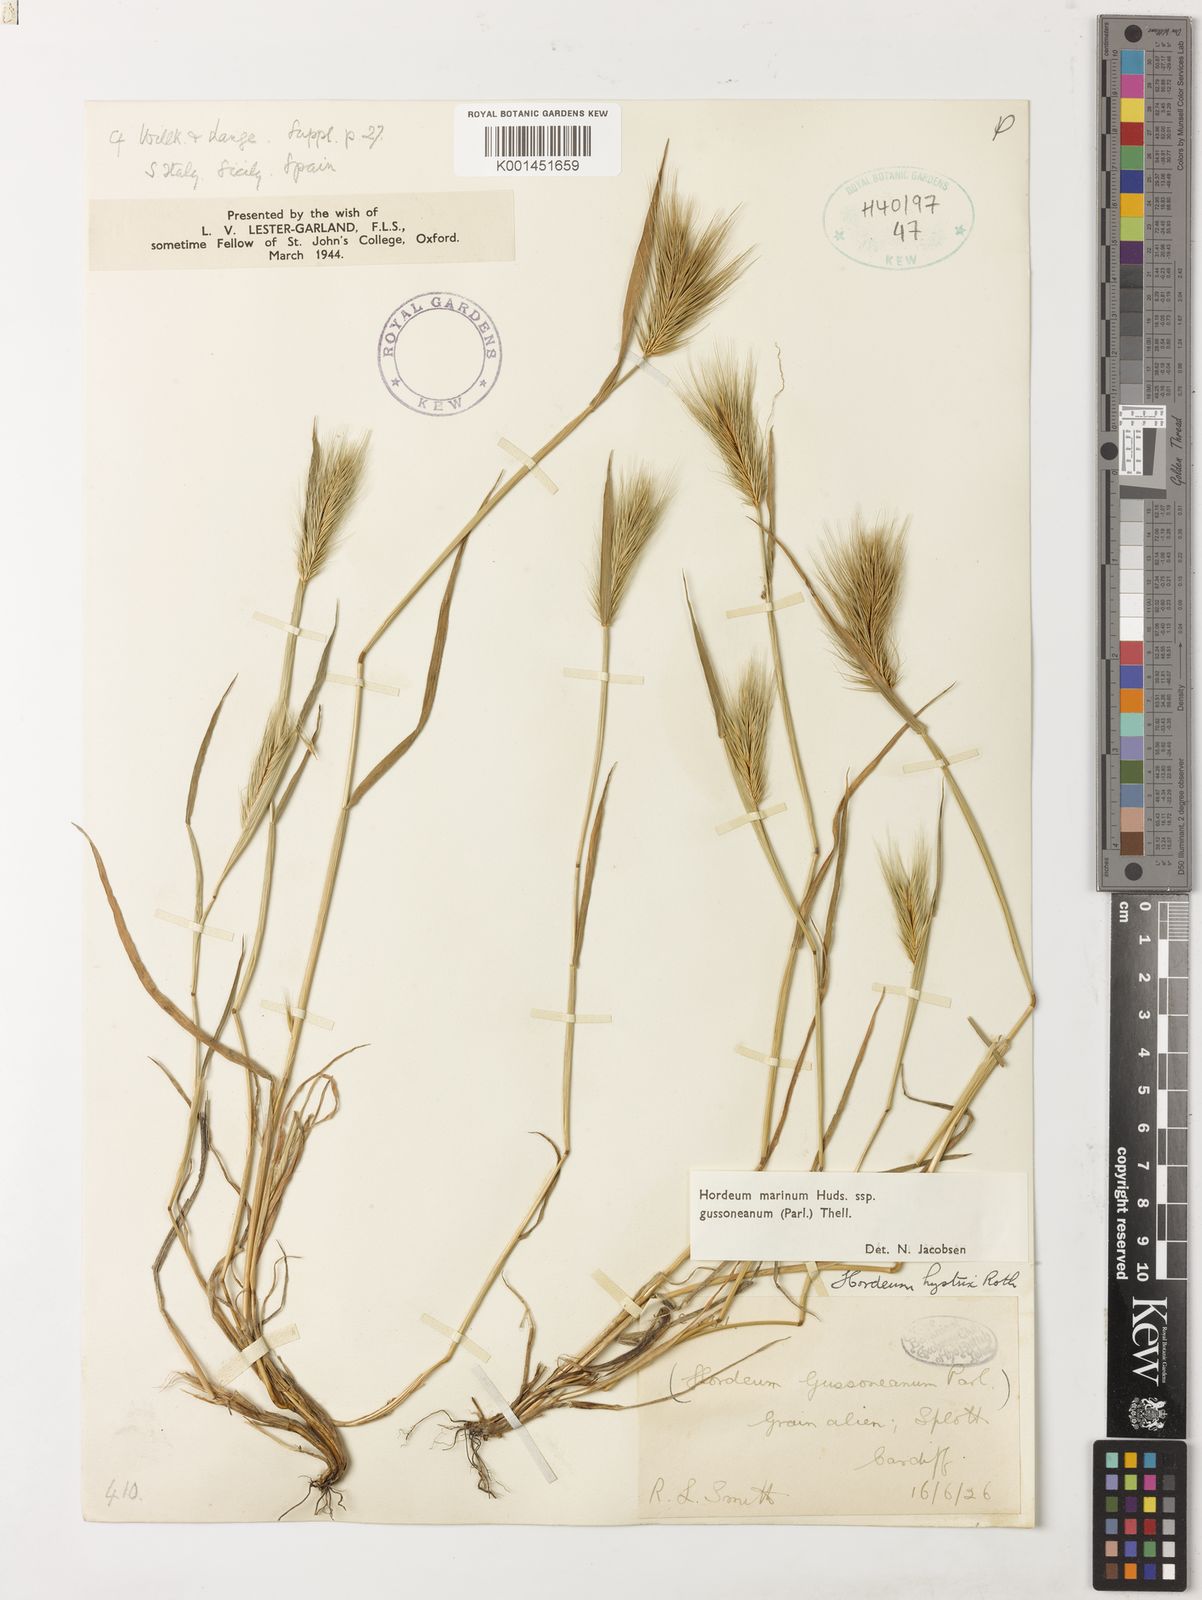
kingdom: Plantae
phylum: Tracheophyta
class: Liliopsida
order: Poales
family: Poaceae
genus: Hordeum
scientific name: Hordeum marinum
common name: Sea barley
